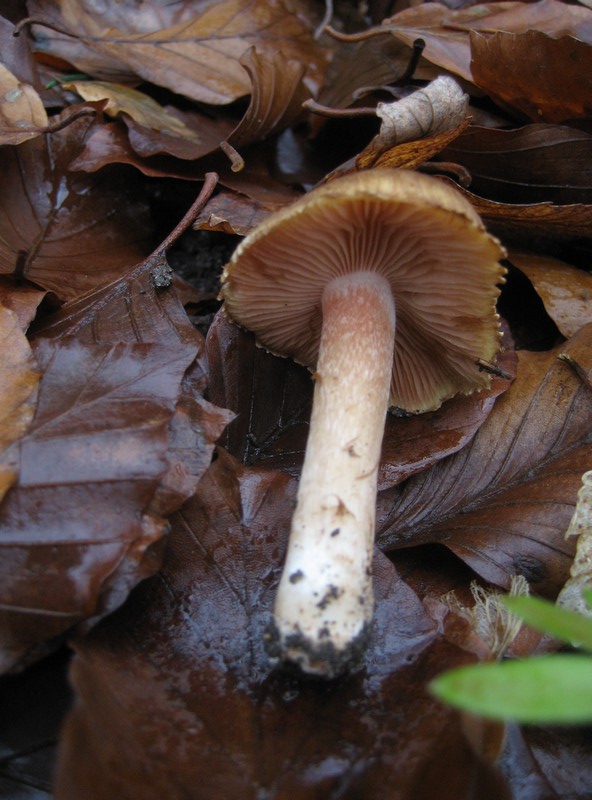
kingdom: Fungi
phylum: Basidiomycota
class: Agaricomycetes
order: Agaricales
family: Inocybaceae
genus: Inocybe
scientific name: Inocybe fraudans
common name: pæreduftende trævlhat
